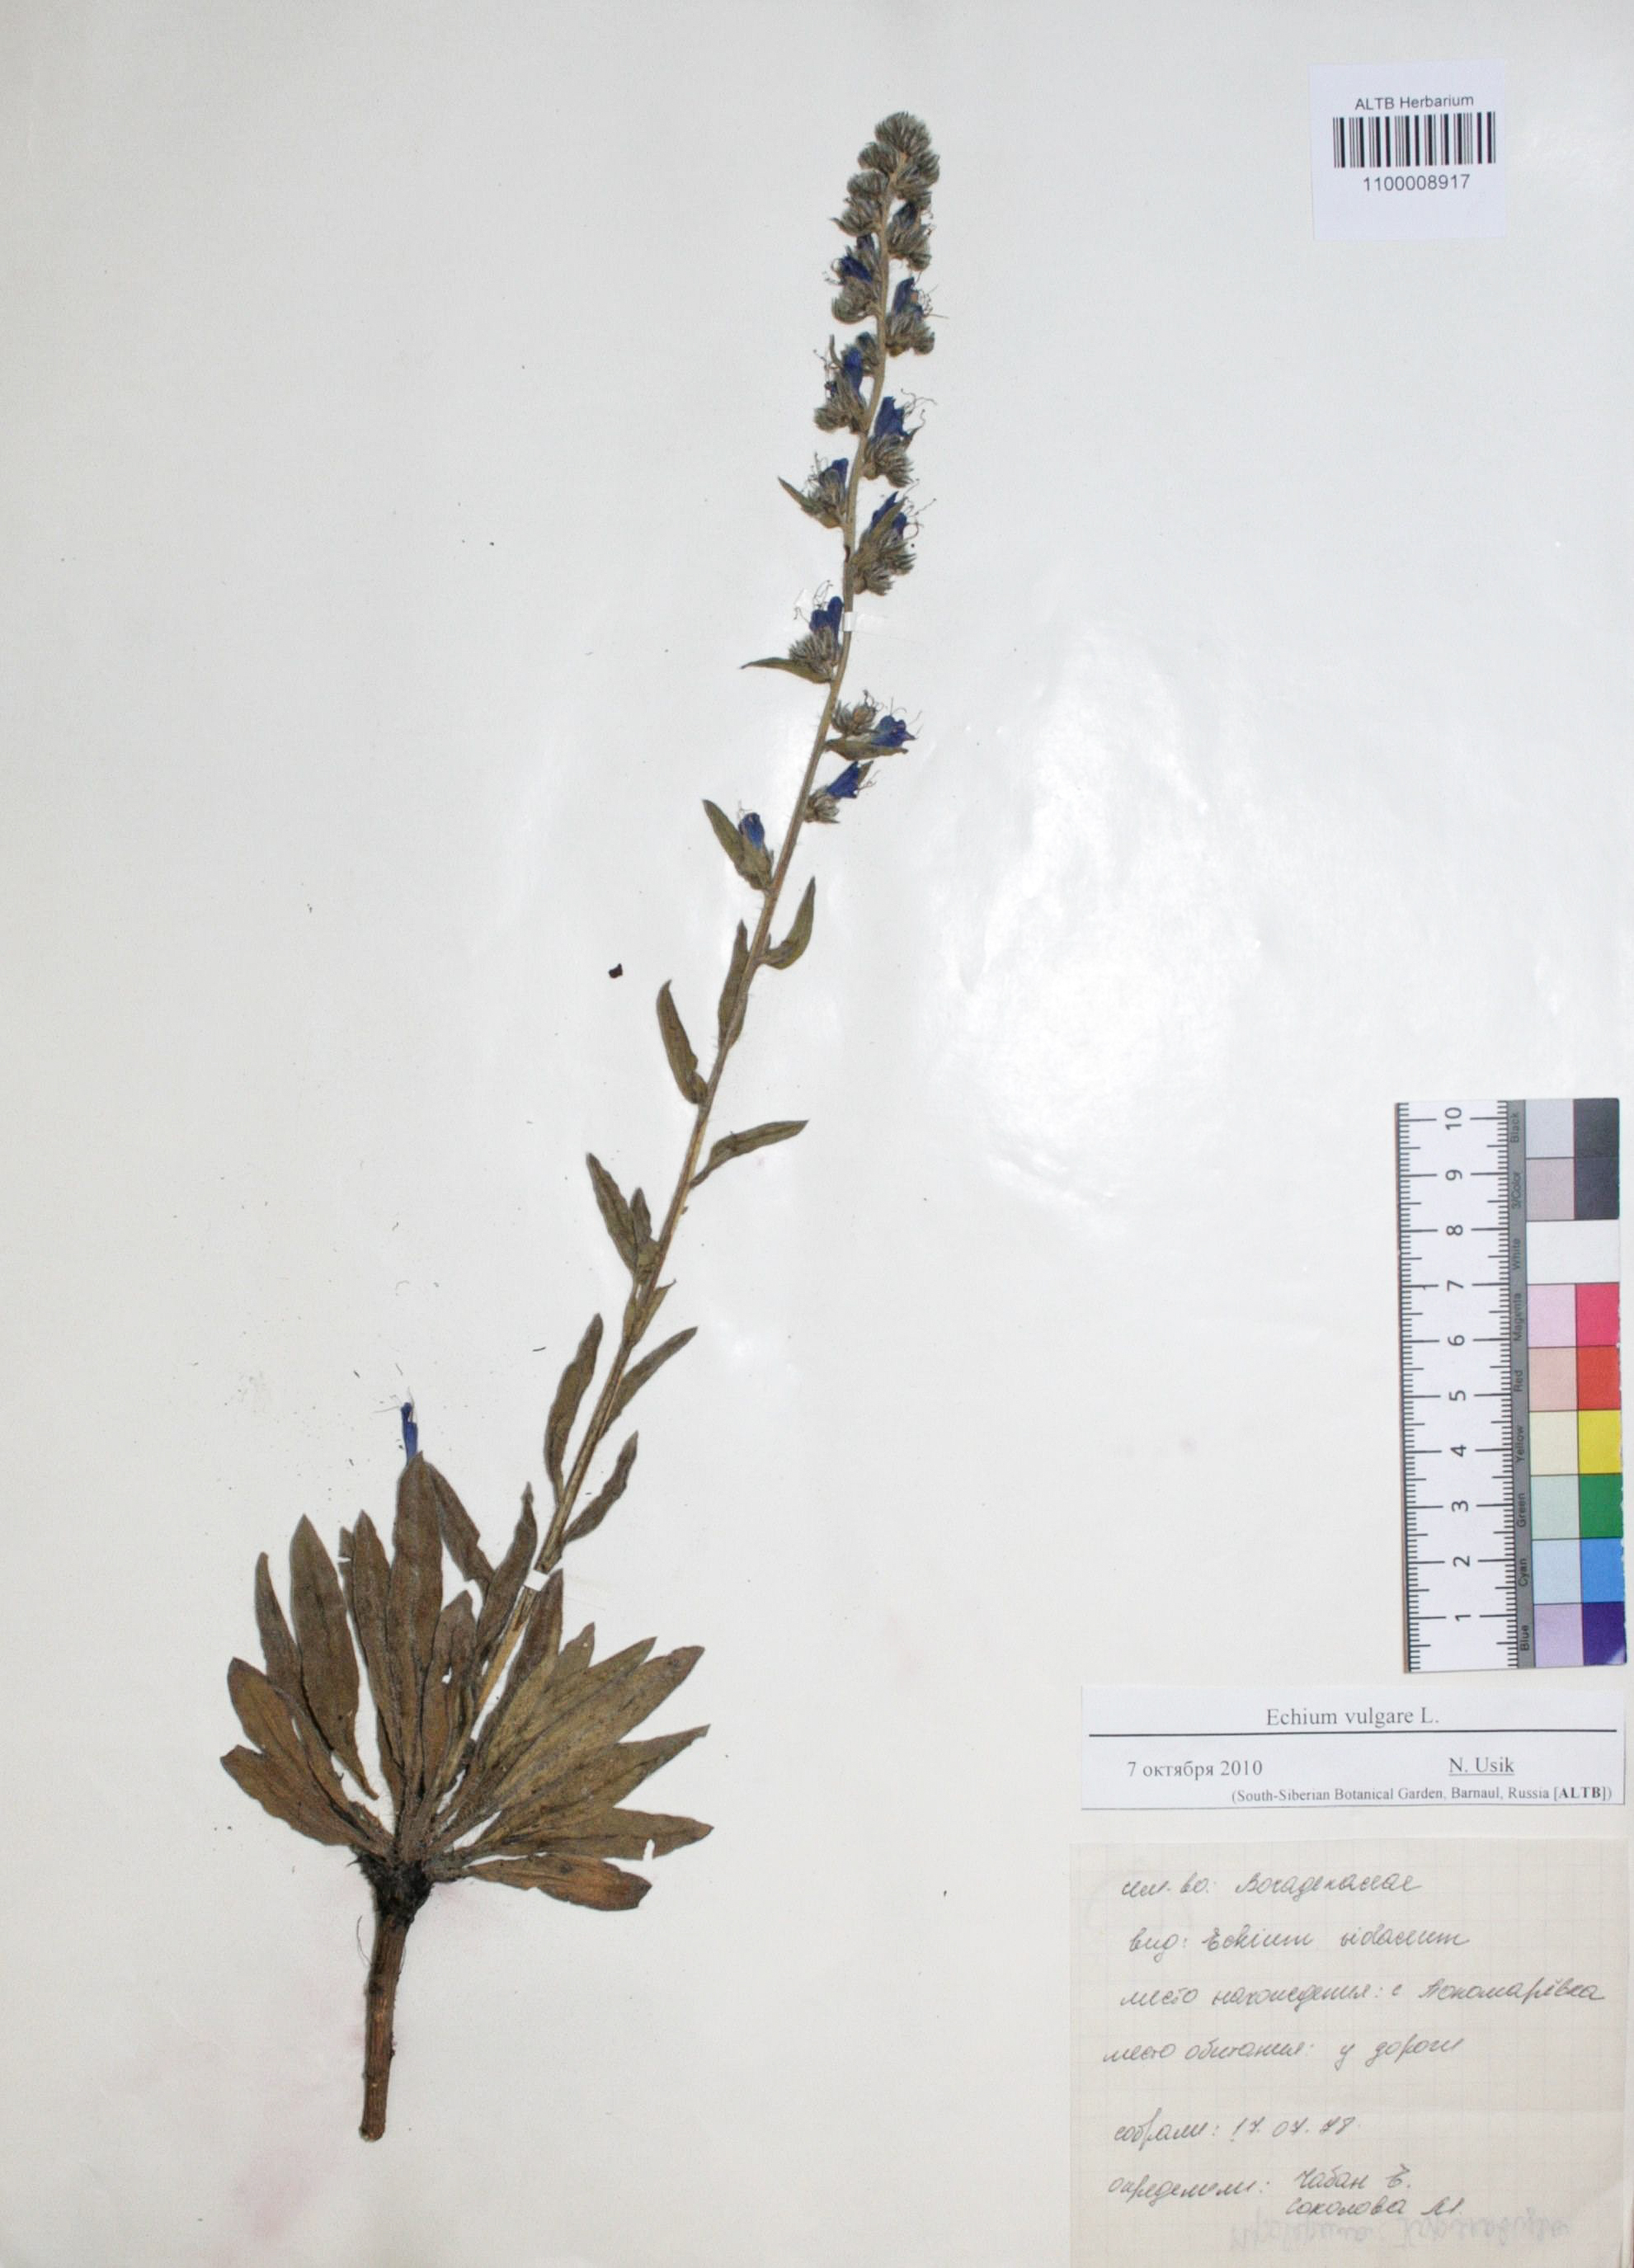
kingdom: Plantae
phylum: Tracheophyta
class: Magnoliopsida
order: Boraginales
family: Boraginaceae
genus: Echium
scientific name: Echium vulgare
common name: Common viper's bugloss
